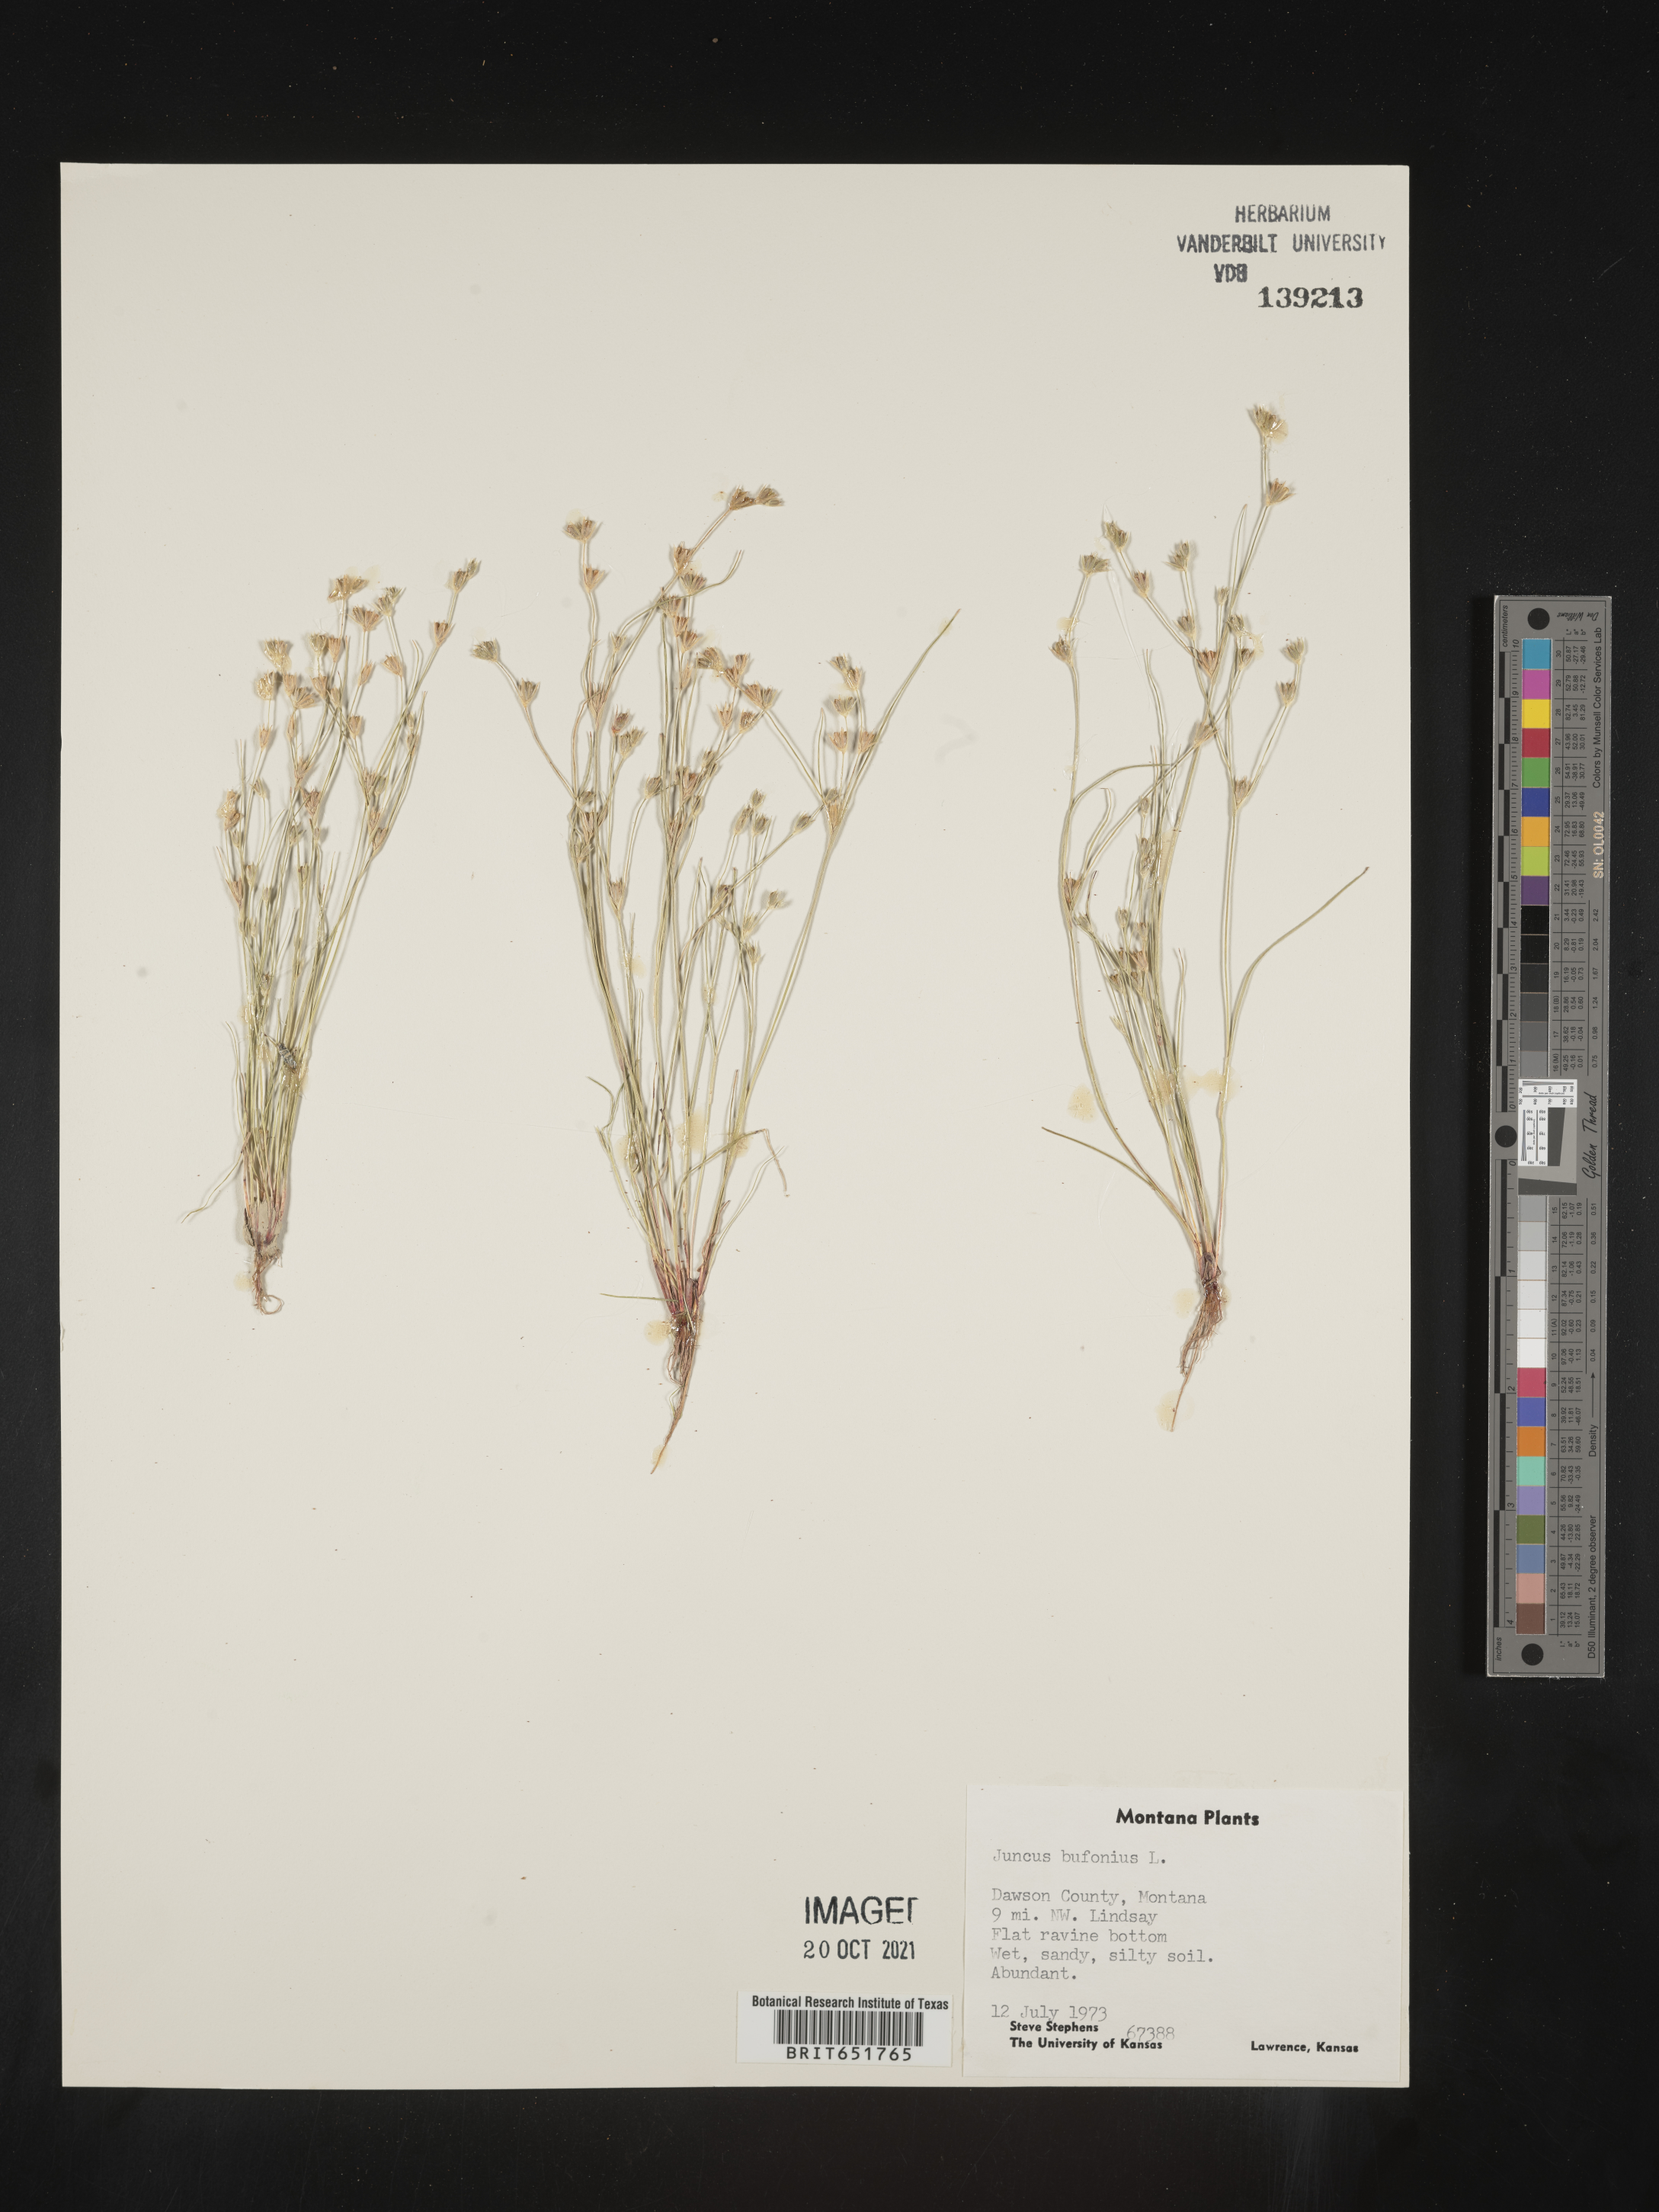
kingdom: Plantae
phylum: Tracheophyta
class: Liliopsida
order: Poales
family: Juncaceae
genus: Juncus
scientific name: Juncus bufonius
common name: Toad rush
